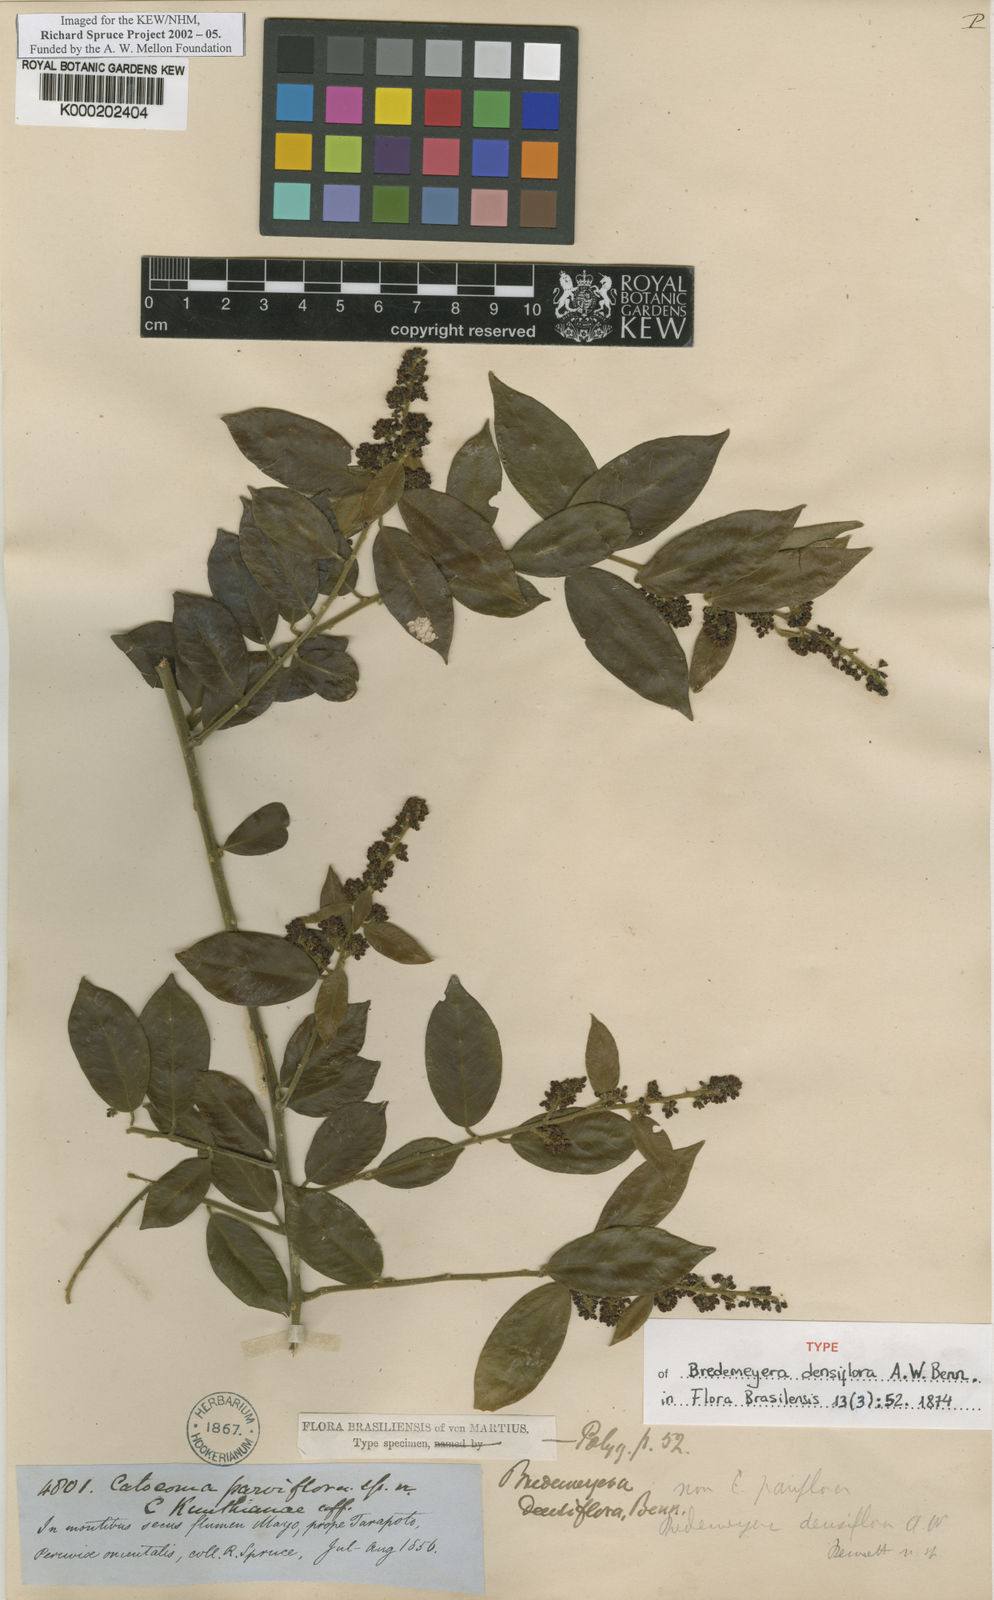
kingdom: Plantae
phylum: Tracheophyta
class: Magnoliopsida
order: Fabales
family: Polygalaceae
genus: Bredemeyera
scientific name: Bredemeyera densiflora
